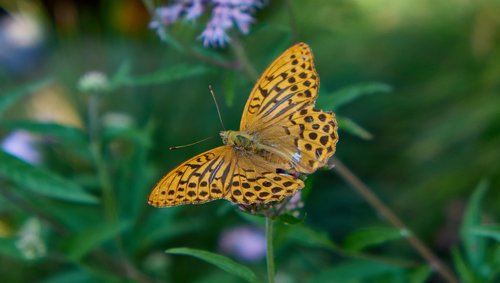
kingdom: Animalia
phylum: Arthropoda
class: Insecta
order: Lepidoptera
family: Nymphalidae
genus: Argynnis
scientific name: Argynnis paphia
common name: Silver-washed fritillary
